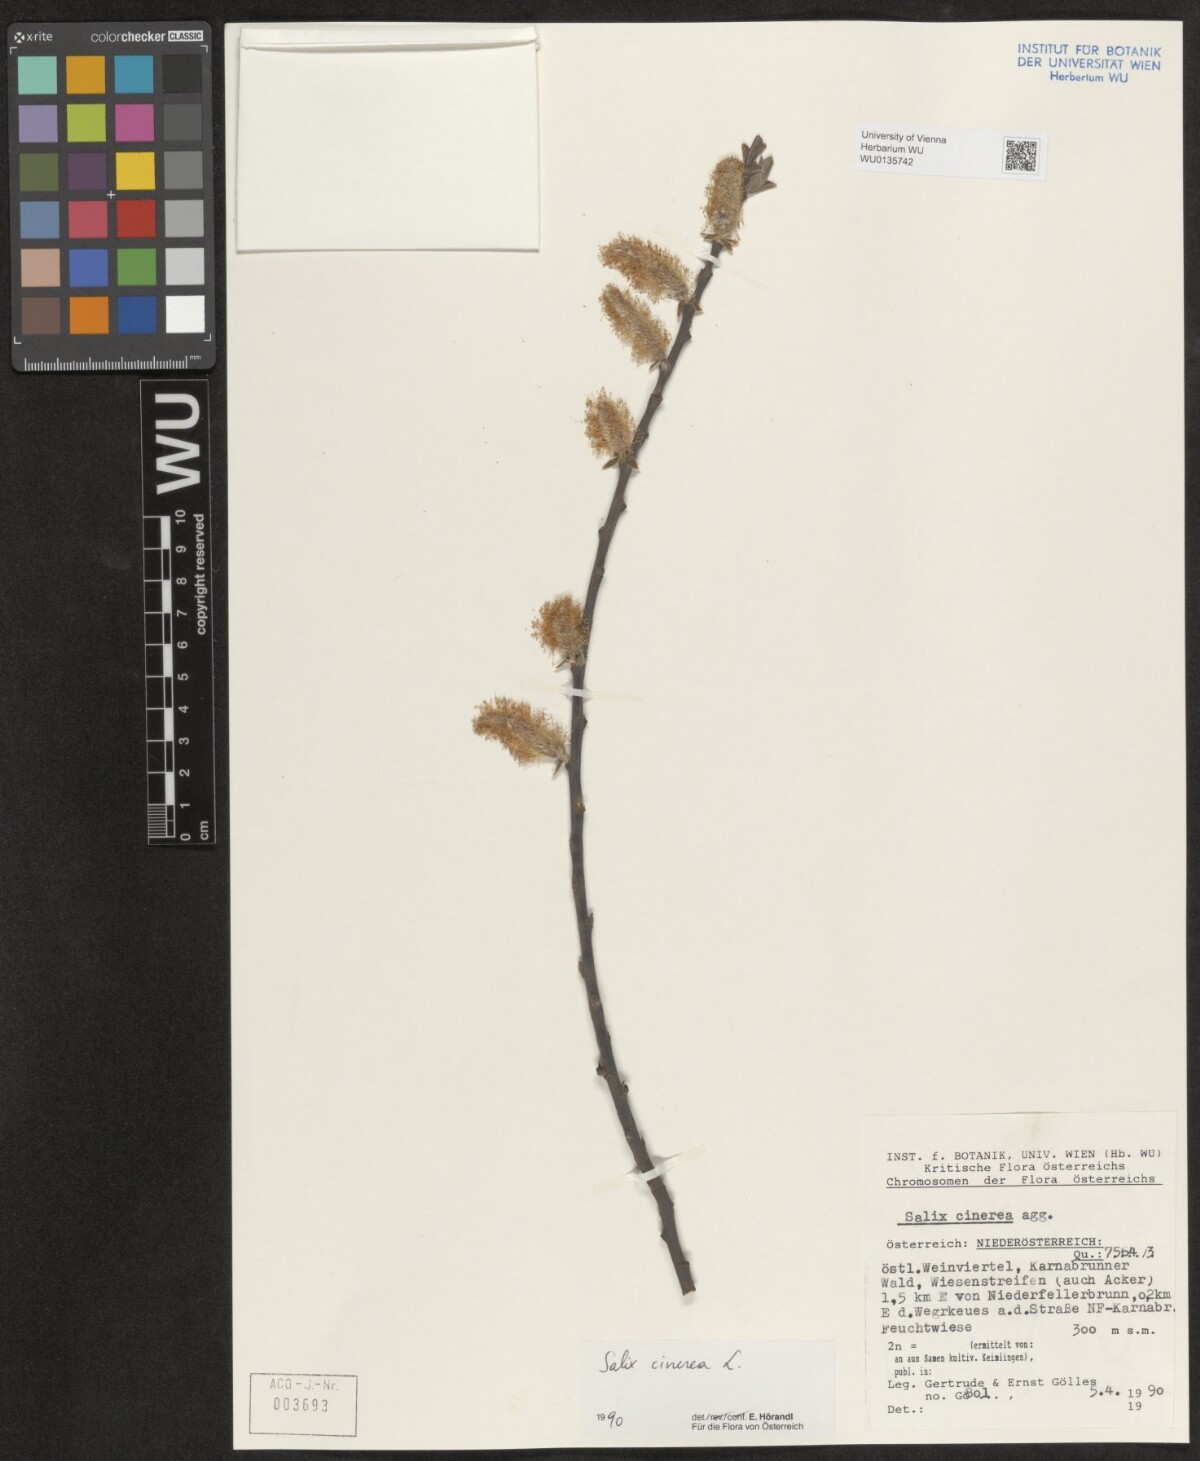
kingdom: Plantae
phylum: Tracheophyta
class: Magnoliopsida
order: Malpighiales
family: Salicaceae
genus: Salix
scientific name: Salix cinerea
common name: Common sallow
